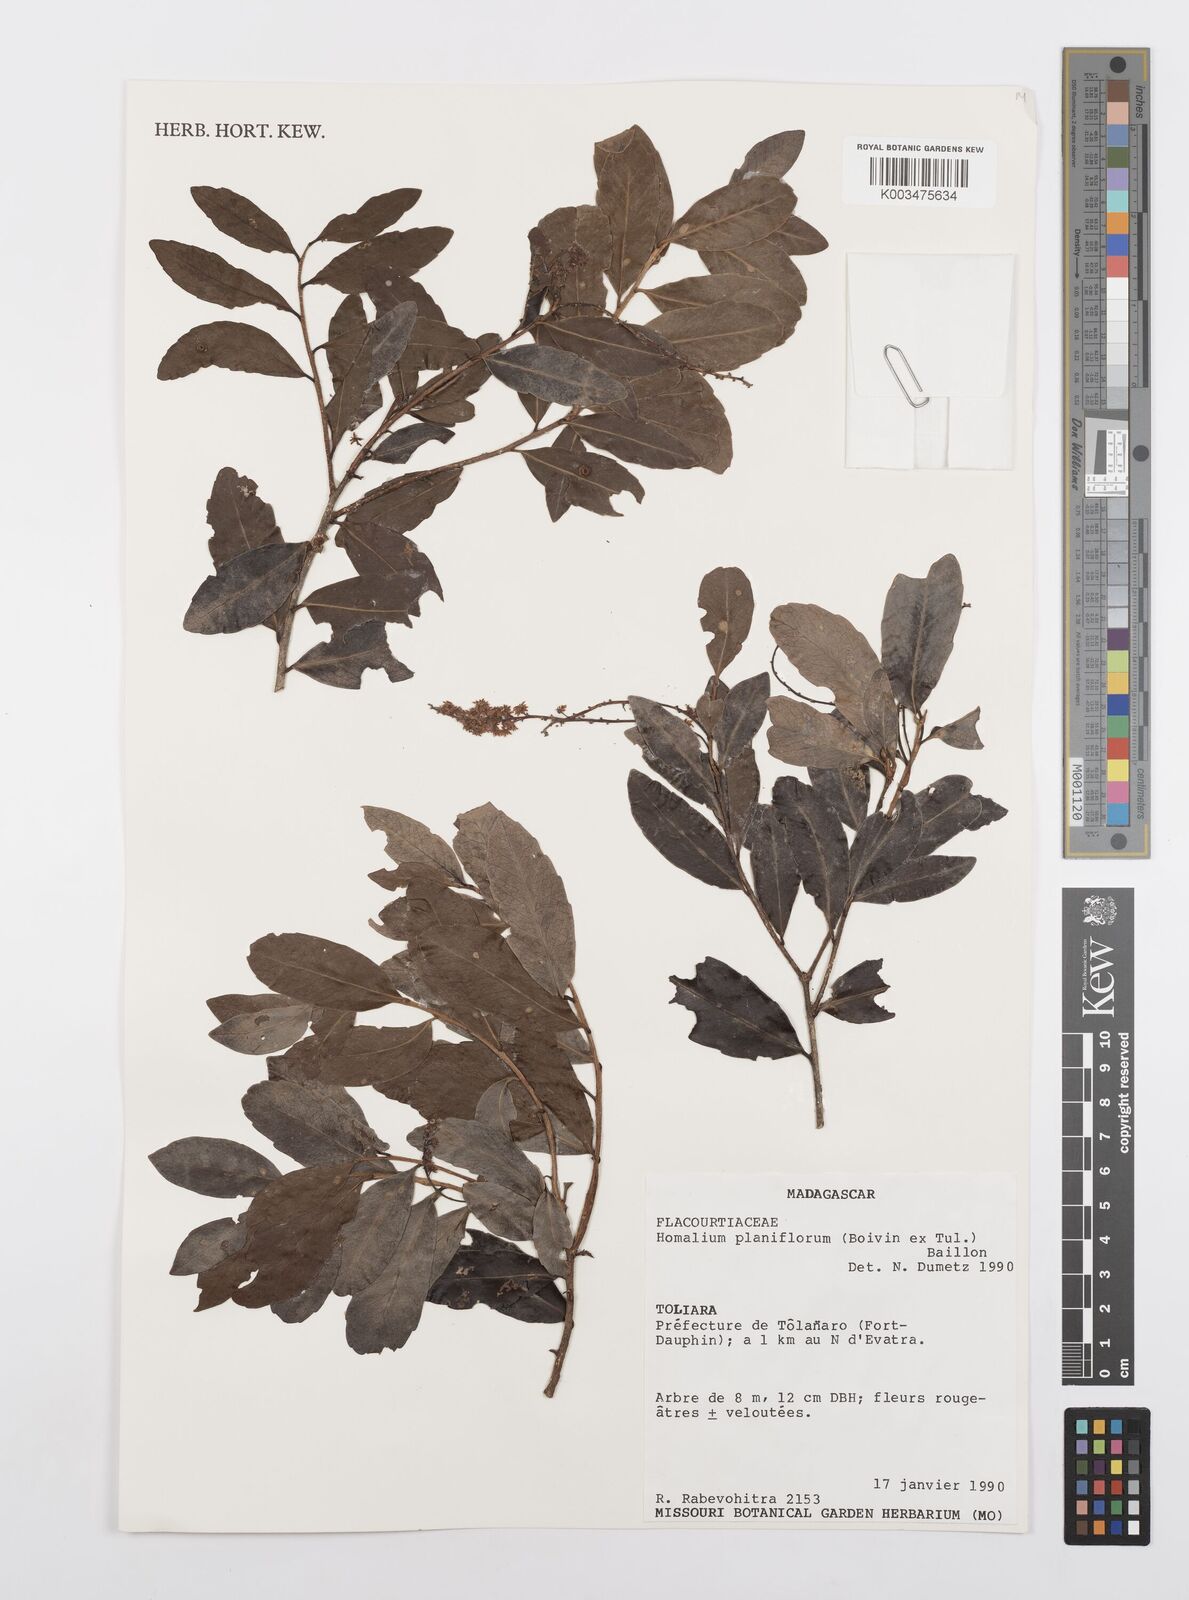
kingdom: Plantae
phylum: Tracheophyta
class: Magnoliopsida
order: Malpighiales
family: Salicaceae
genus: Homalium
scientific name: Homalium planiflorum
